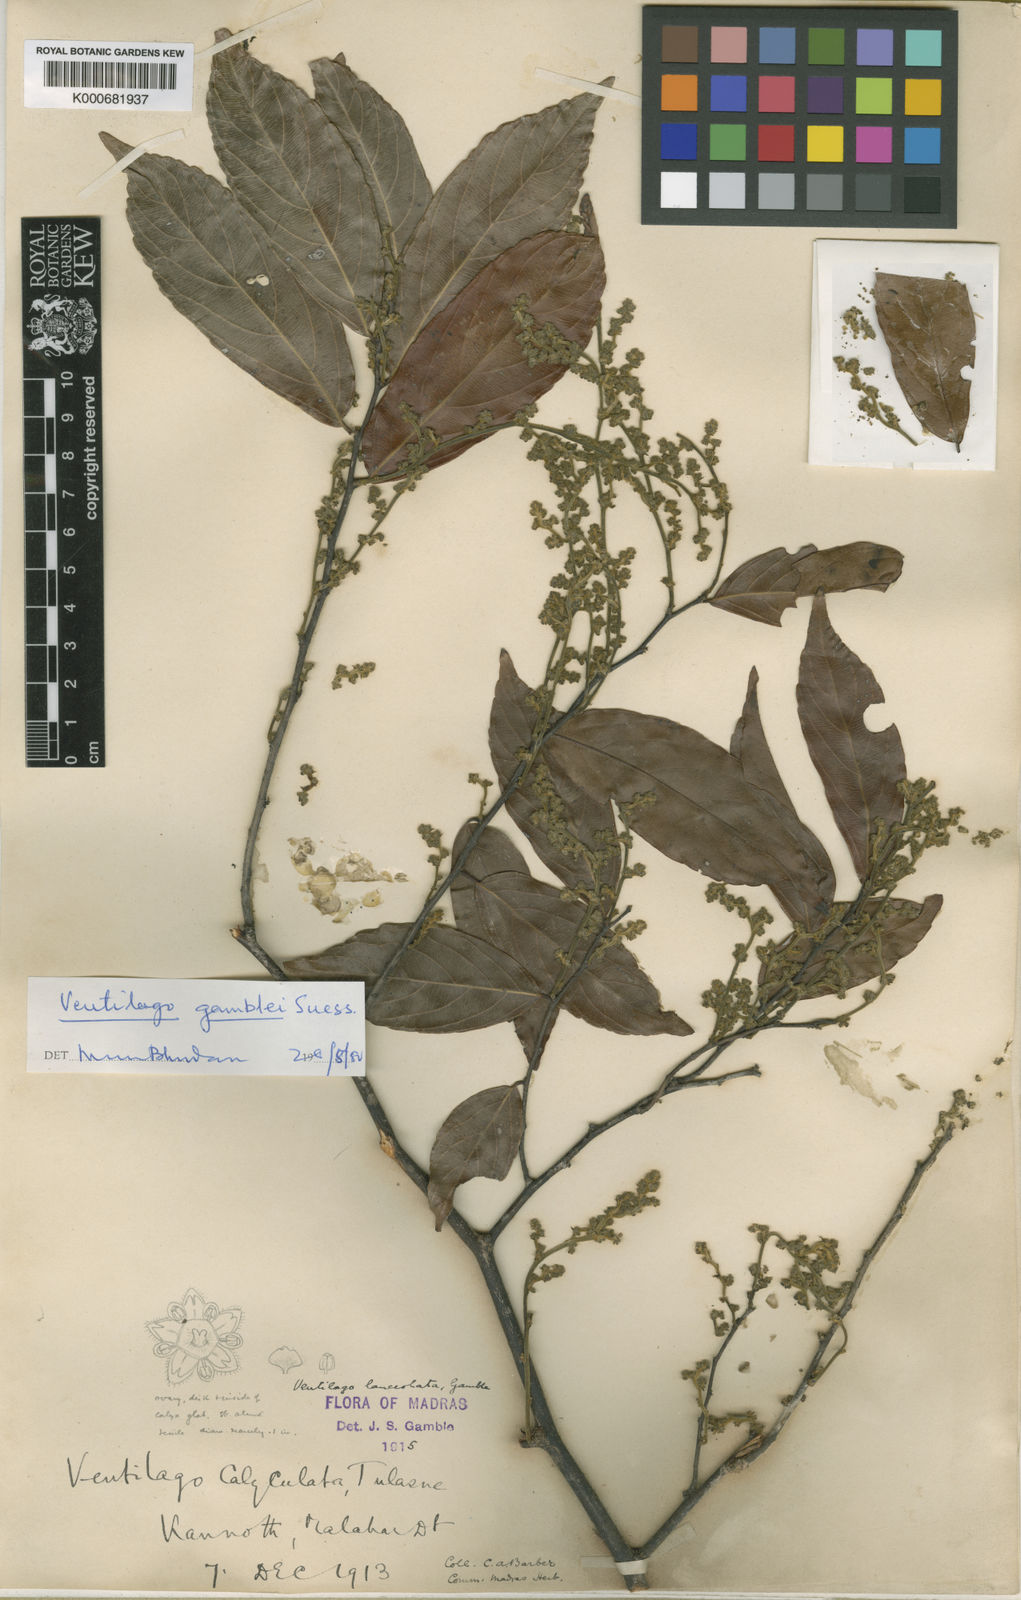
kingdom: Plantae
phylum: Tracheophyta
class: Magnoliopsida
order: Rosales
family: Rhamnaceae
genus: Ventilago
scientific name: Ventilago gamblei
